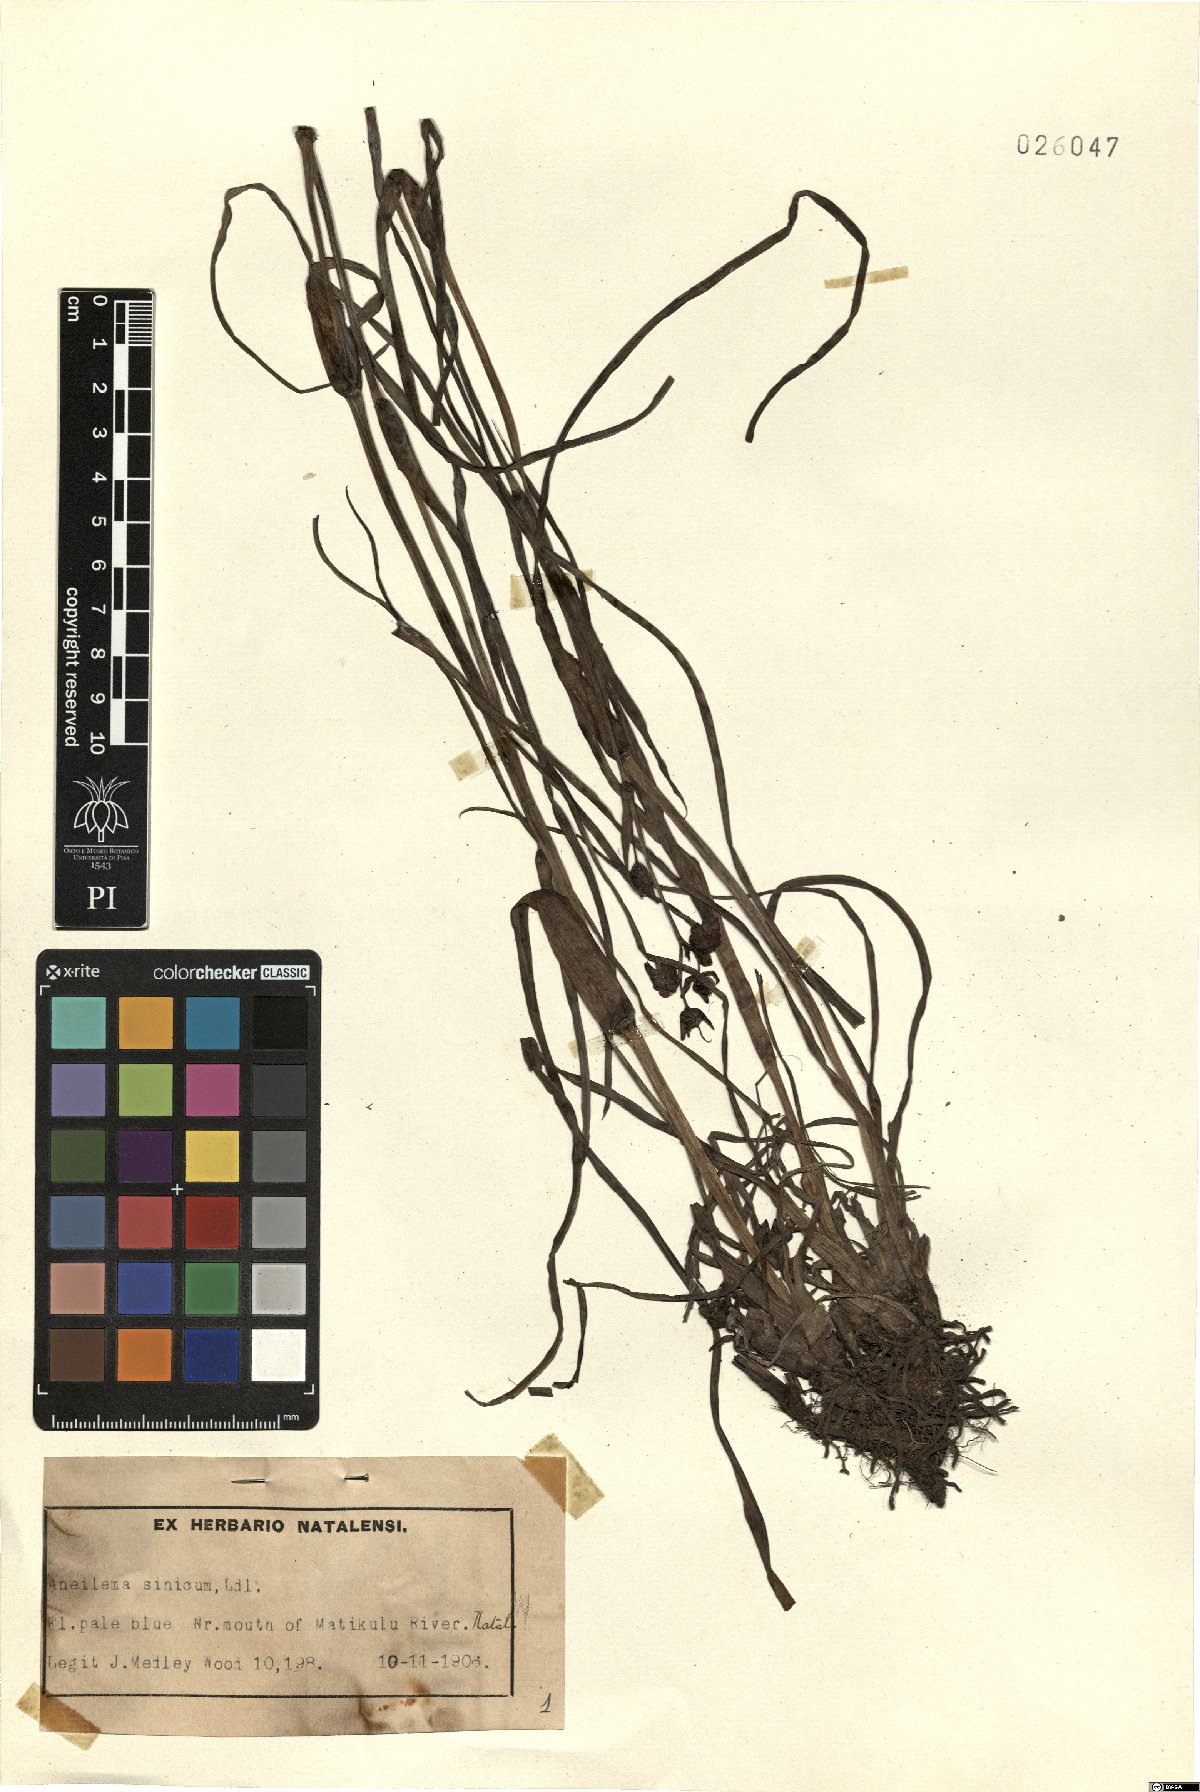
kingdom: Plantae
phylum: Tracheophyta
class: Liliopsida
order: Commelinales
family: Commelinaceae
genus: Murdannia
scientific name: Murdannia simplex
